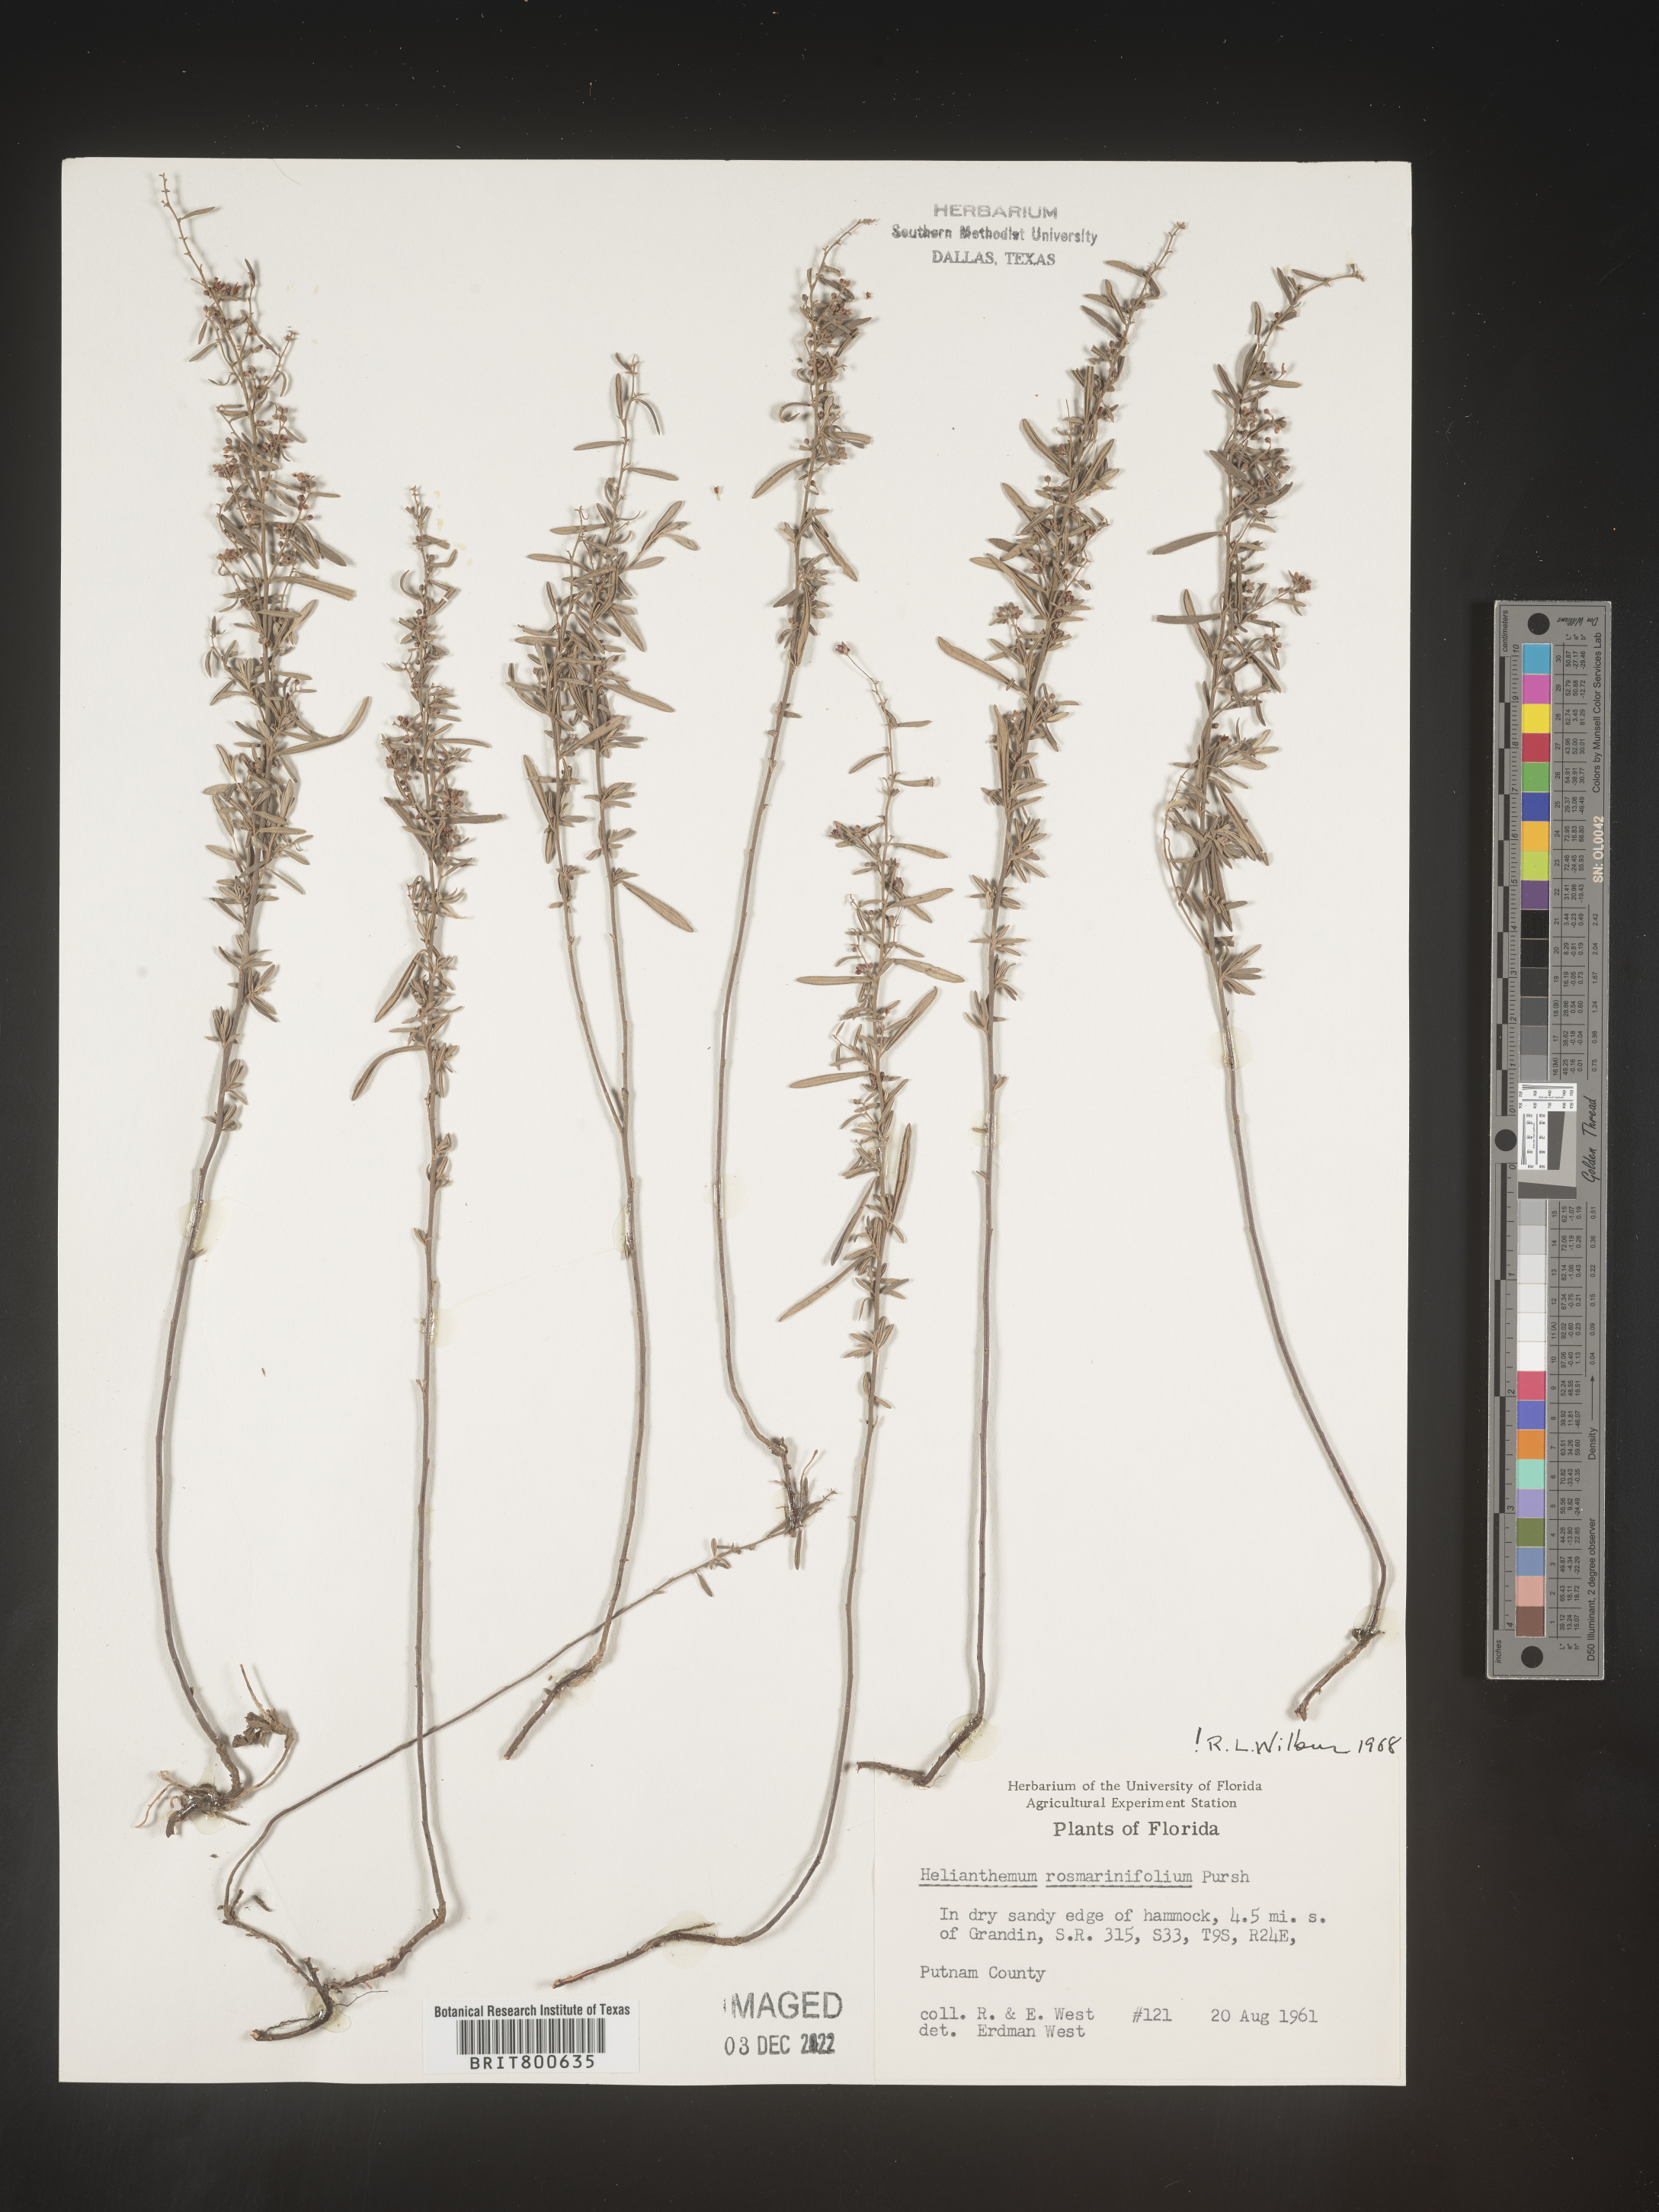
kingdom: Plantae
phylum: Tracheophyta
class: Magnoliopsida
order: Malvales
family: Cistaceae
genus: Helianthemum
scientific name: Helianthemum
